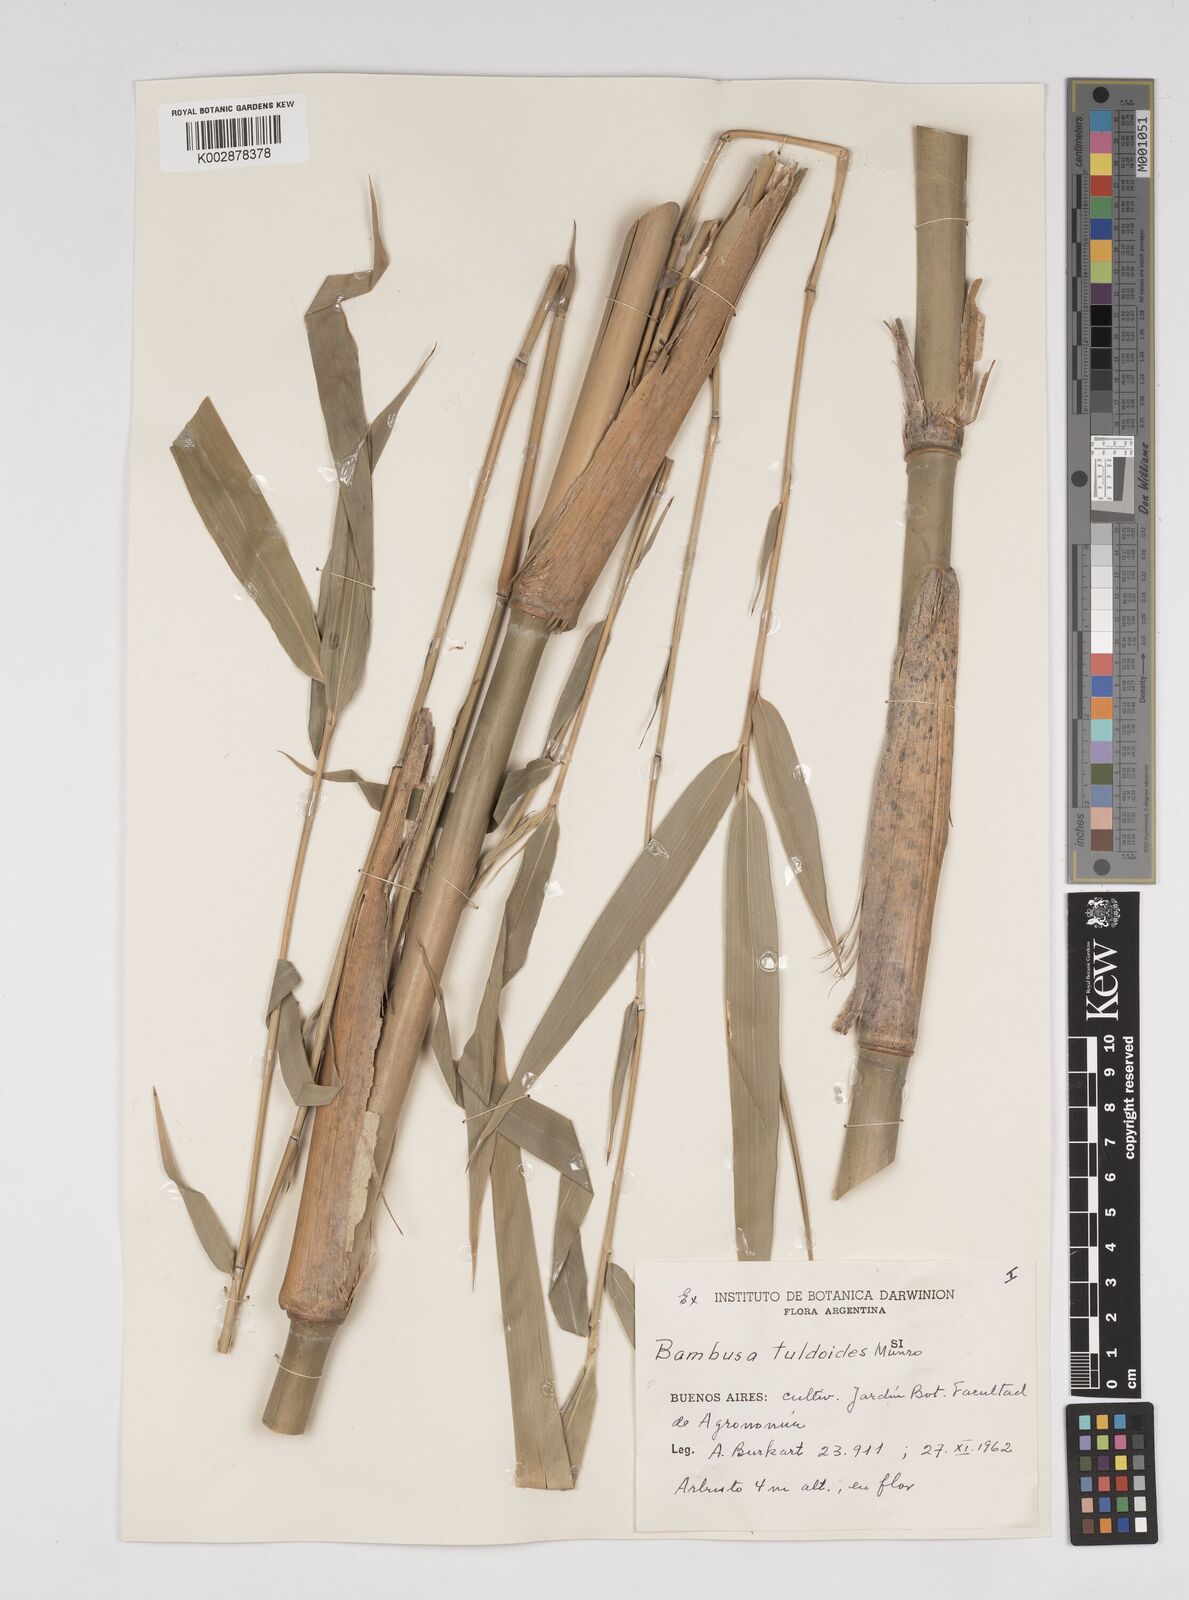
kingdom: Plantae
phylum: Tracheophyta
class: Liliopsida
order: Poales
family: Poaceae
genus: Bambusa
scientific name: Bambusa tuldoides
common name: Verdant bamboo
